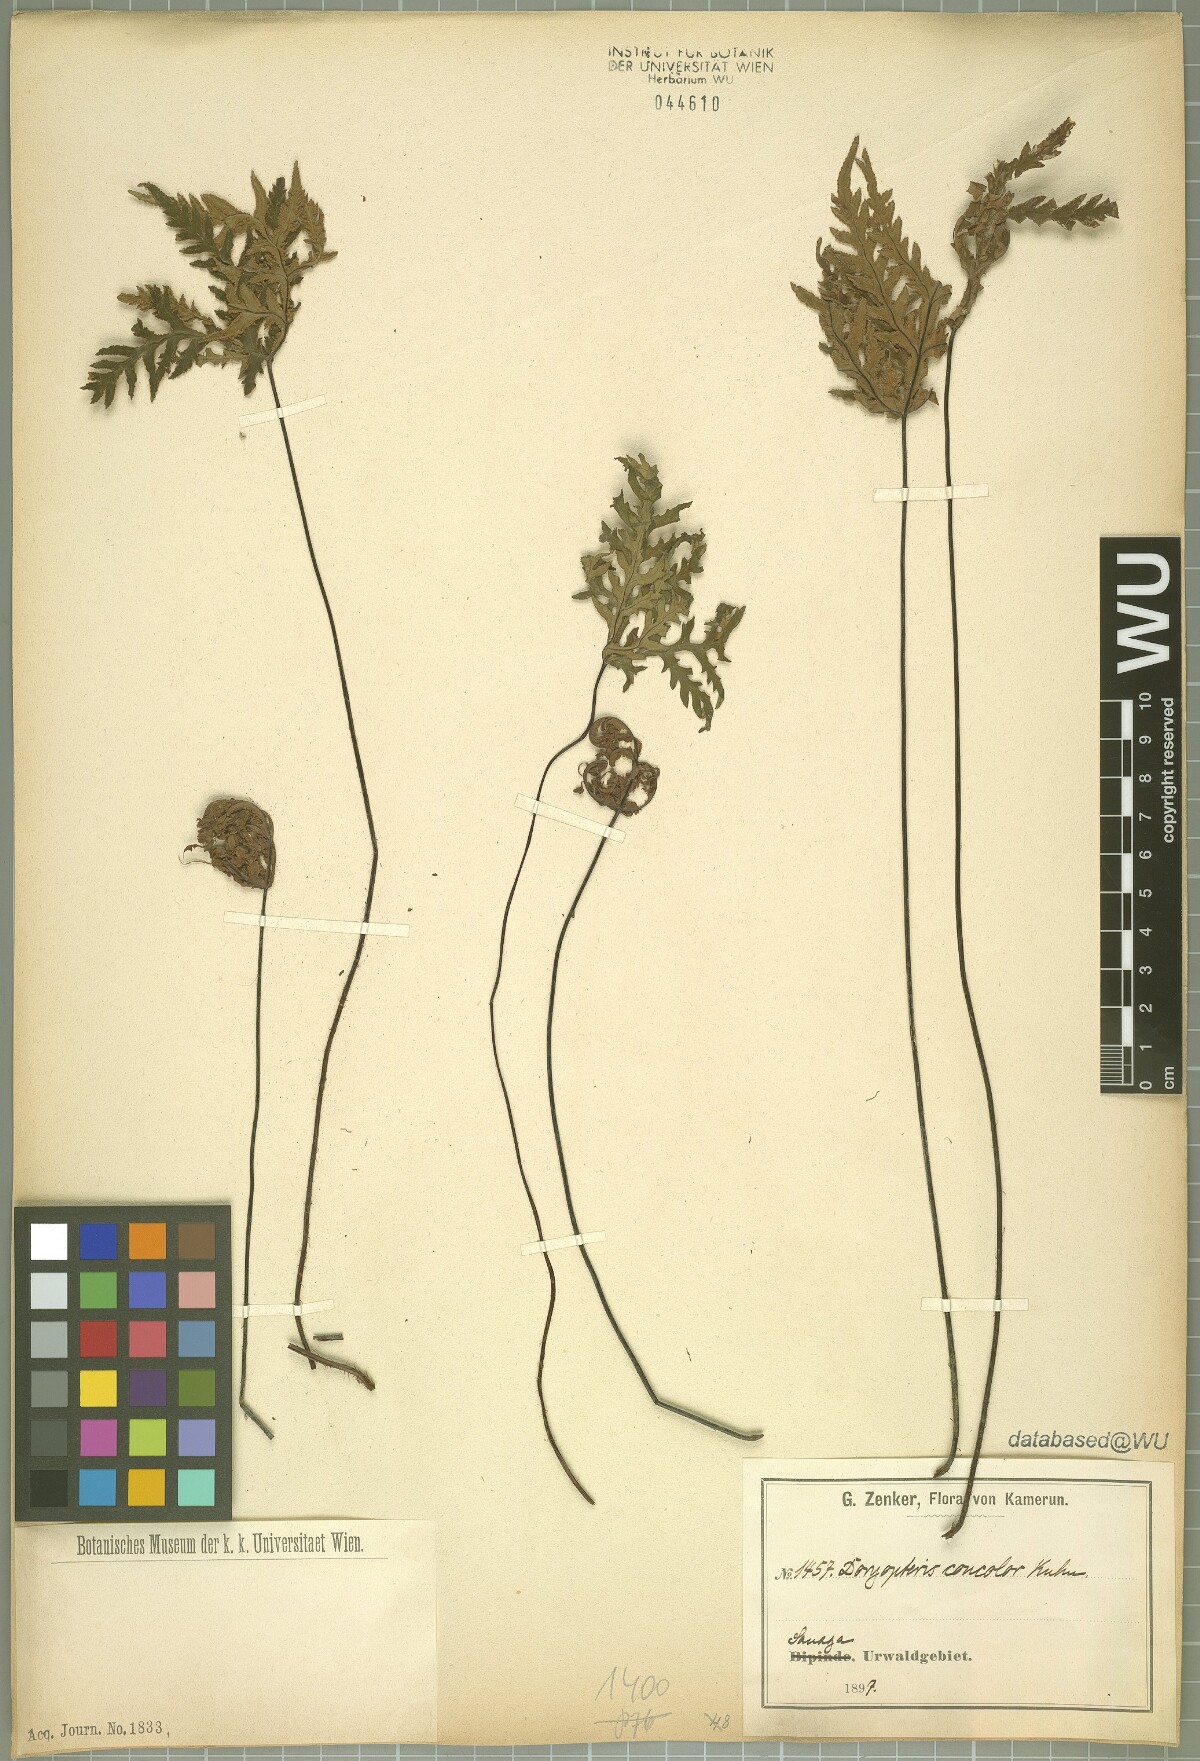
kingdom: Plantae
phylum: Tracheophyta
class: Polypodiopsida
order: Polypodiales
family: Pteridaceae
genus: Doryopteris
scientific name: Doryopteris concolor
